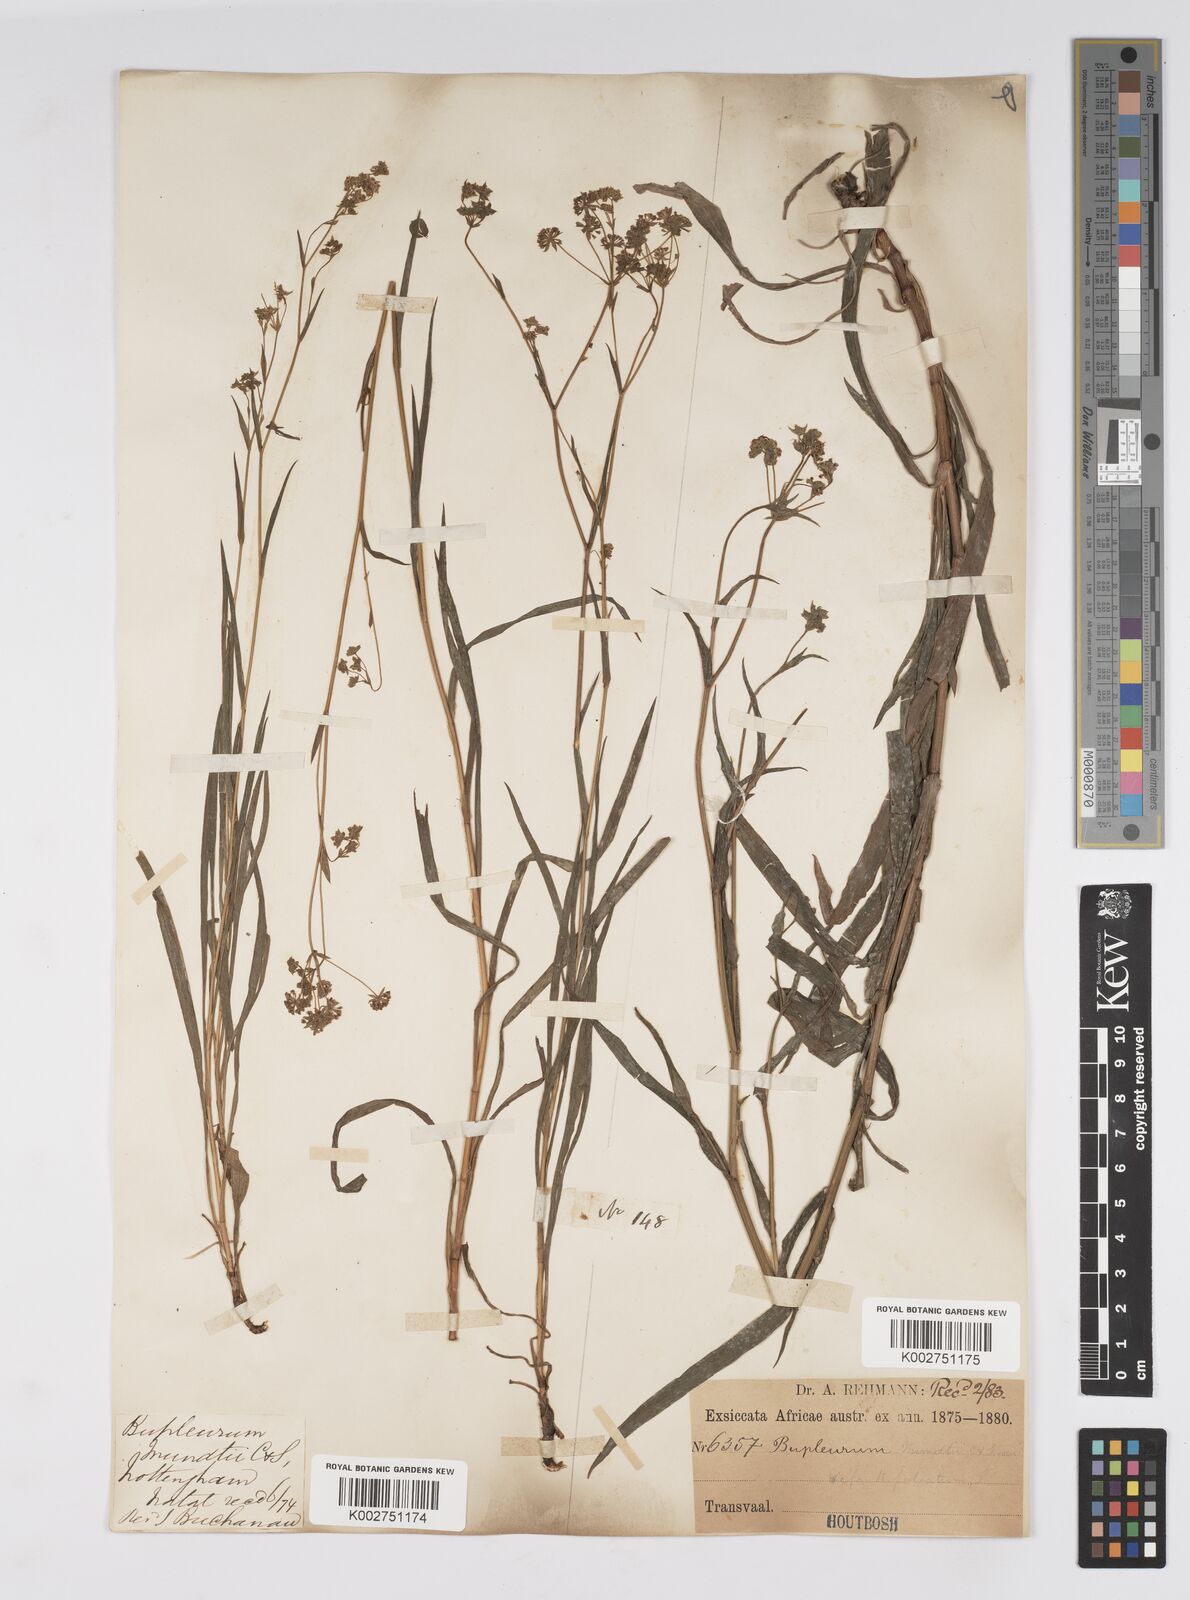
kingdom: Plantae
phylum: Tracheophyta
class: Magnoliopsida
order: Apiales
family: Apiaceae
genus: Bupleurum
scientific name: Bupleurum mundii
